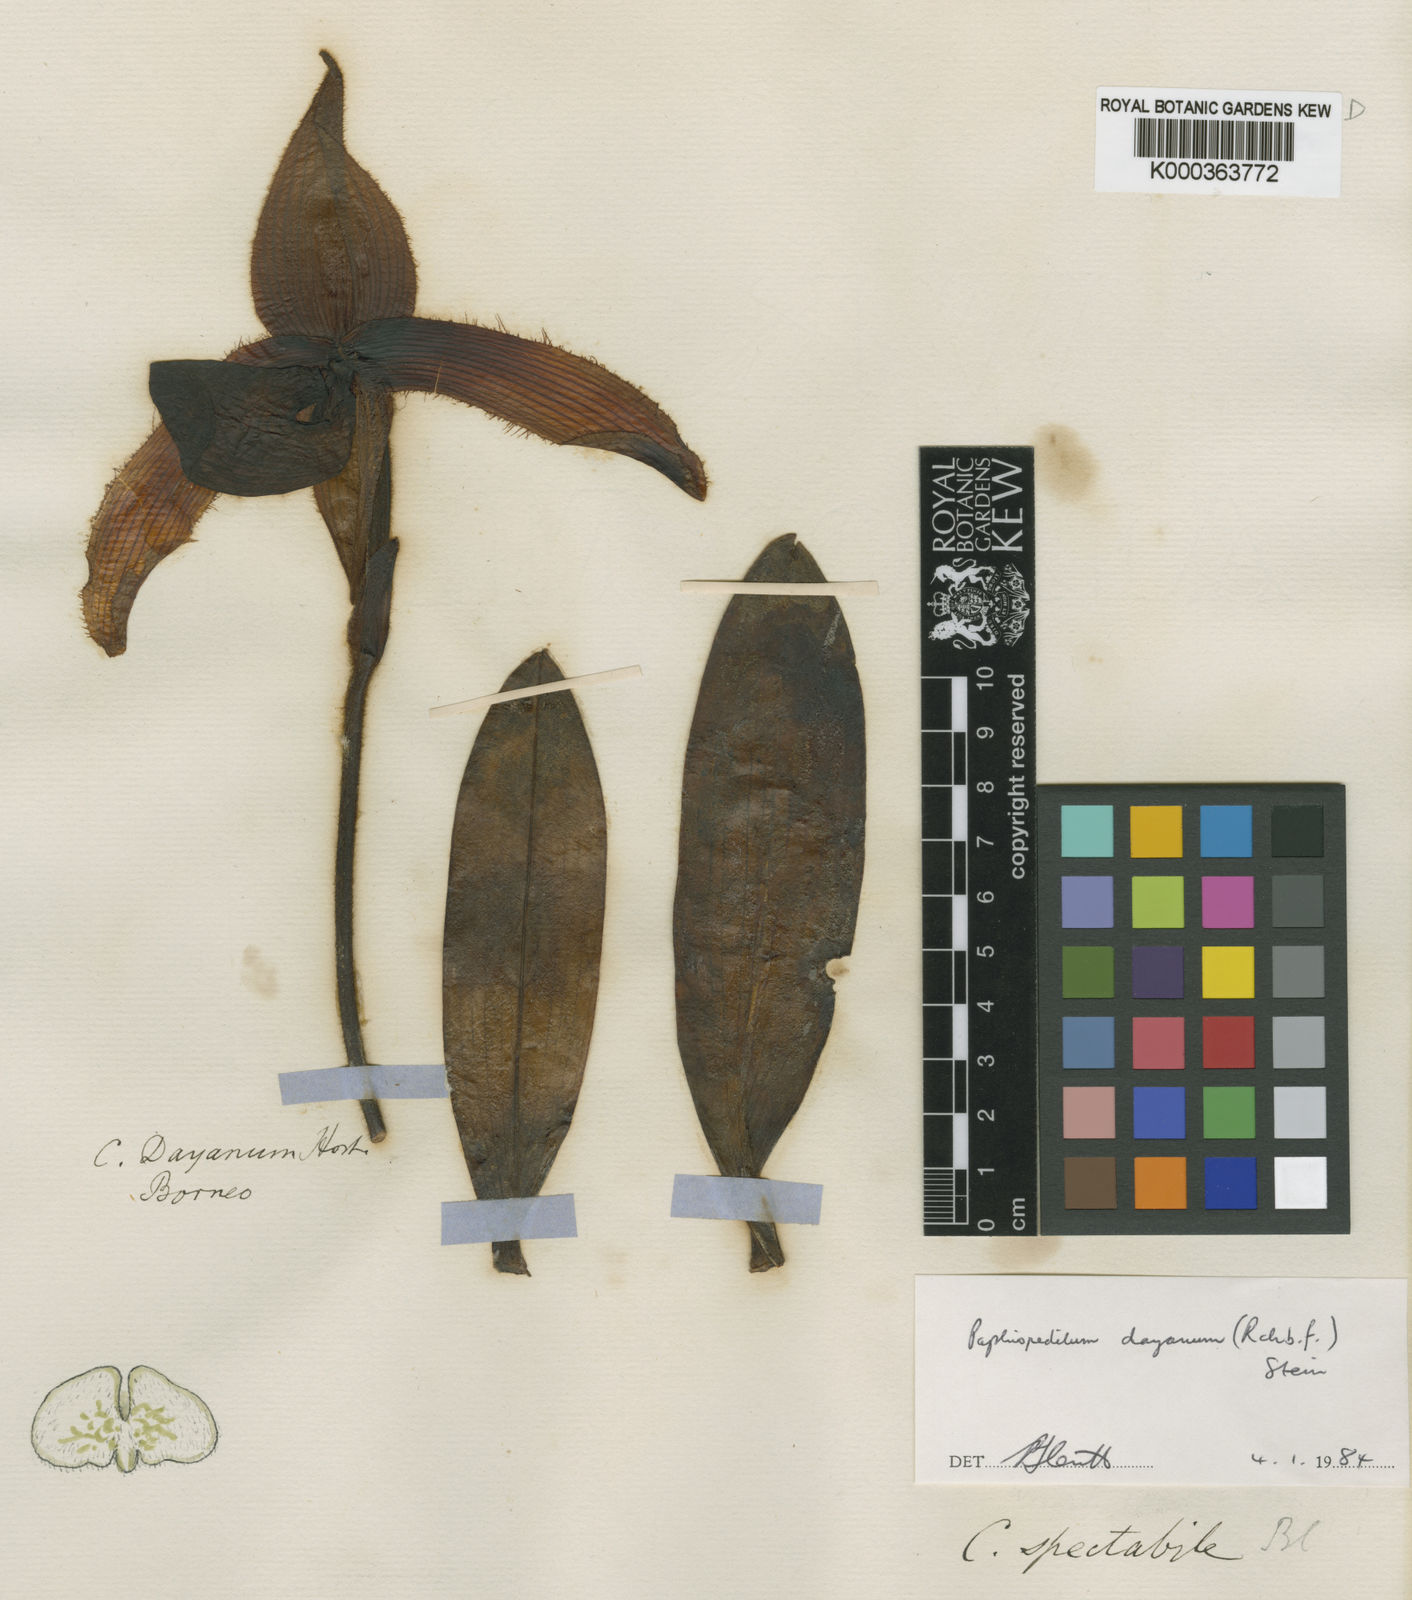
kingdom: Plantae
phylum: Tracheophyta
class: Liliopsida
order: Asparagales
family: Orchidaceae
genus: Paphiopedilum
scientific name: Paphiopedilum dayanum
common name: Day's paphiopedilum
